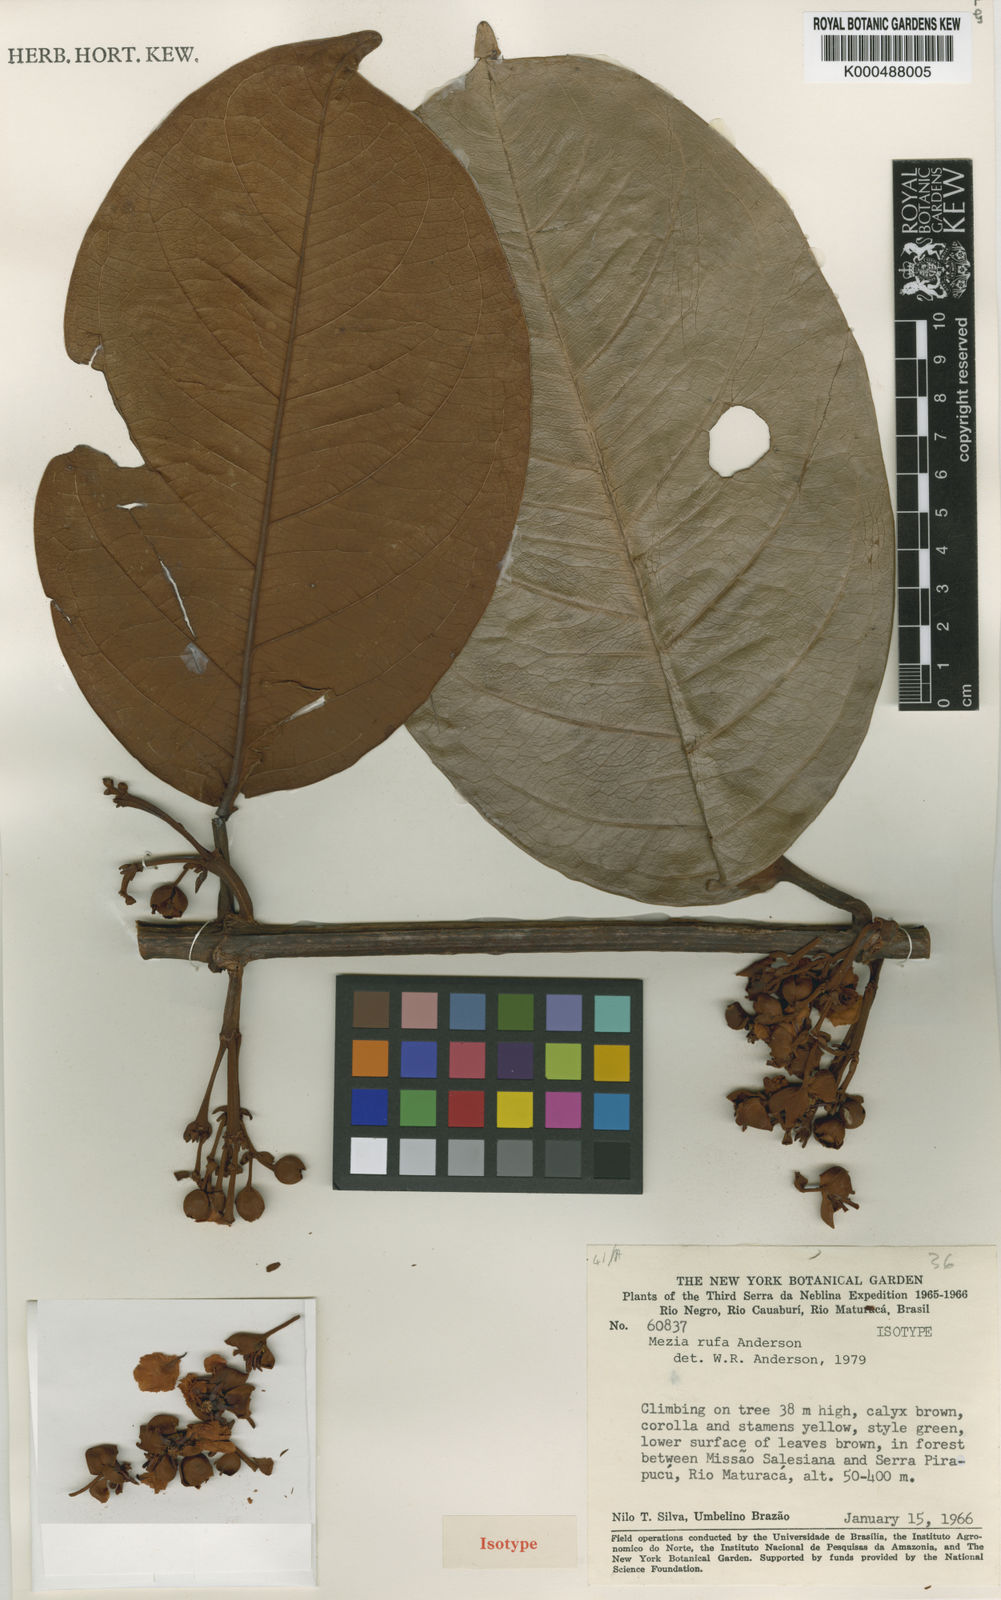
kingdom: Plantae
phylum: Tracheophyta
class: Magnoliopsida
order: Malpighiales
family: Malpighiaceae
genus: Mezia
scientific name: Mezia rufa
